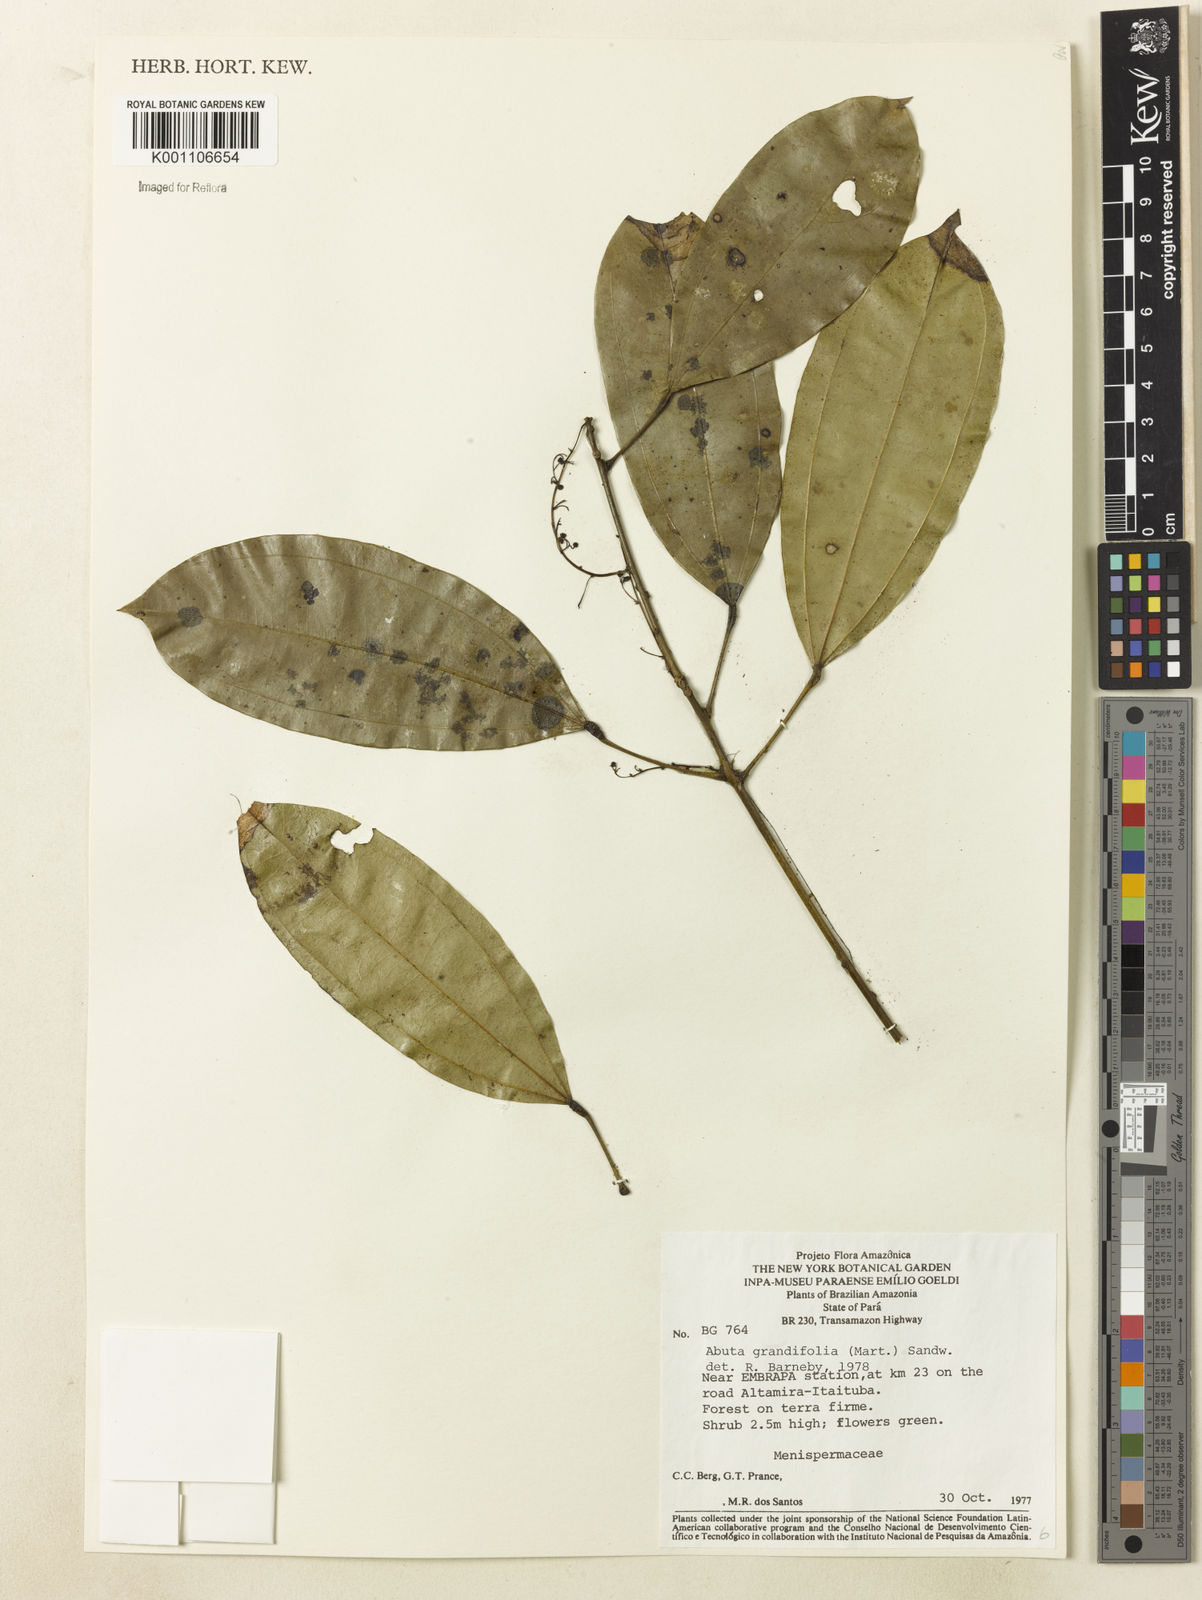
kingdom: Plantae
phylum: Tracheophyta
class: Magnoliopsida
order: Ranunculales
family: Menispermaceae
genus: Abuta
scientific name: Abuta grandifolia
